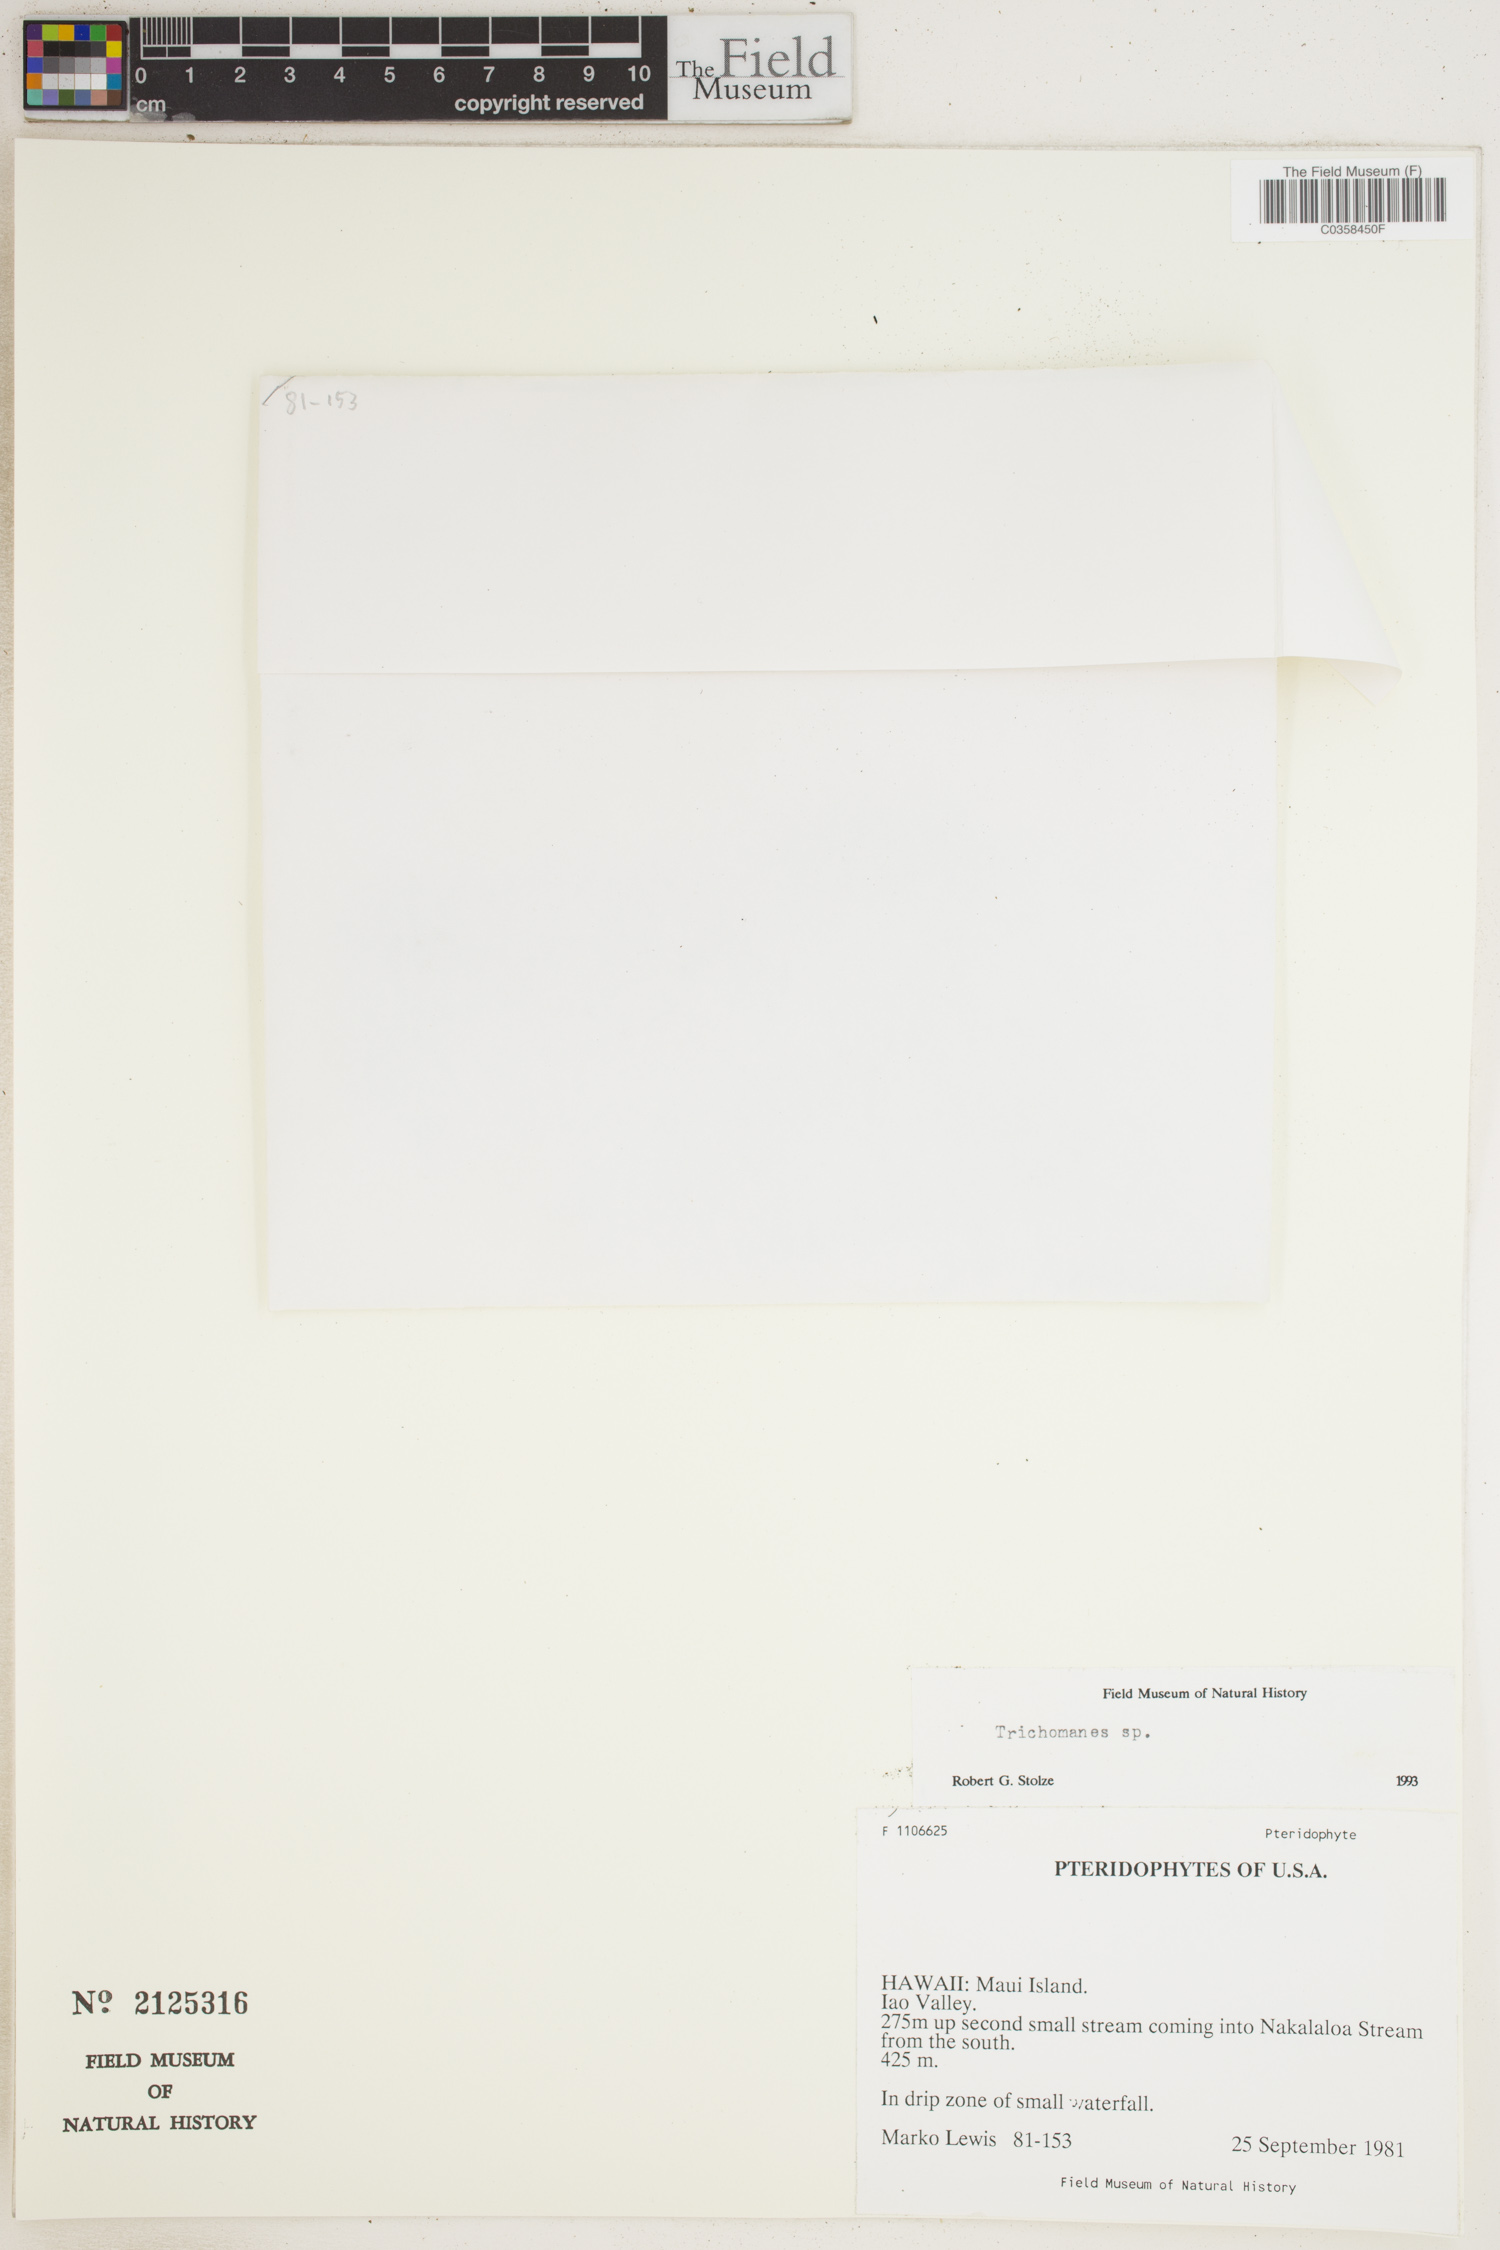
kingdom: Plantae
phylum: Tracheophyta
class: Polypodiopsida
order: Hymenophyllales
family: Hymenophyllaceae
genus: Trichomanes
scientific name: Trichomanes
